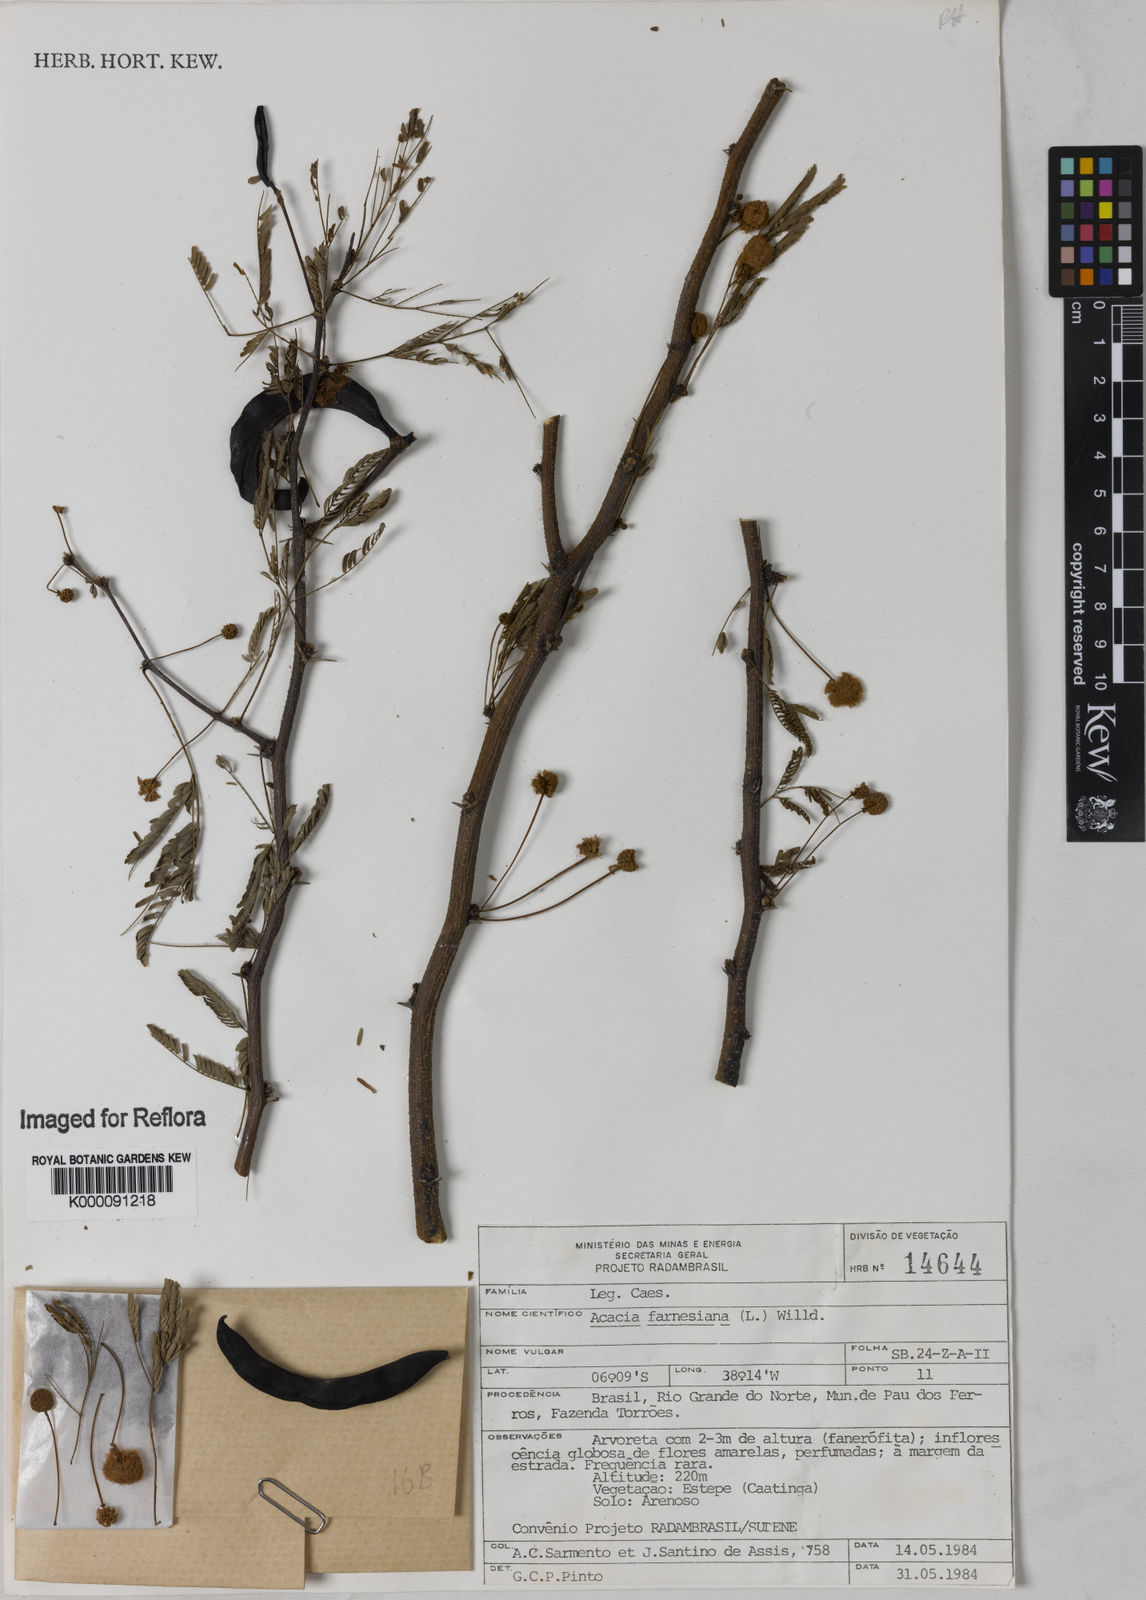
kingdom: Plantae
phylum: Tracheophyta
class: Magnoliopsida
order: Fabales
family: Fabaceae
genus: Vachellia
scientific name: Vachellia farnesiana
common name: Sweet acacia
